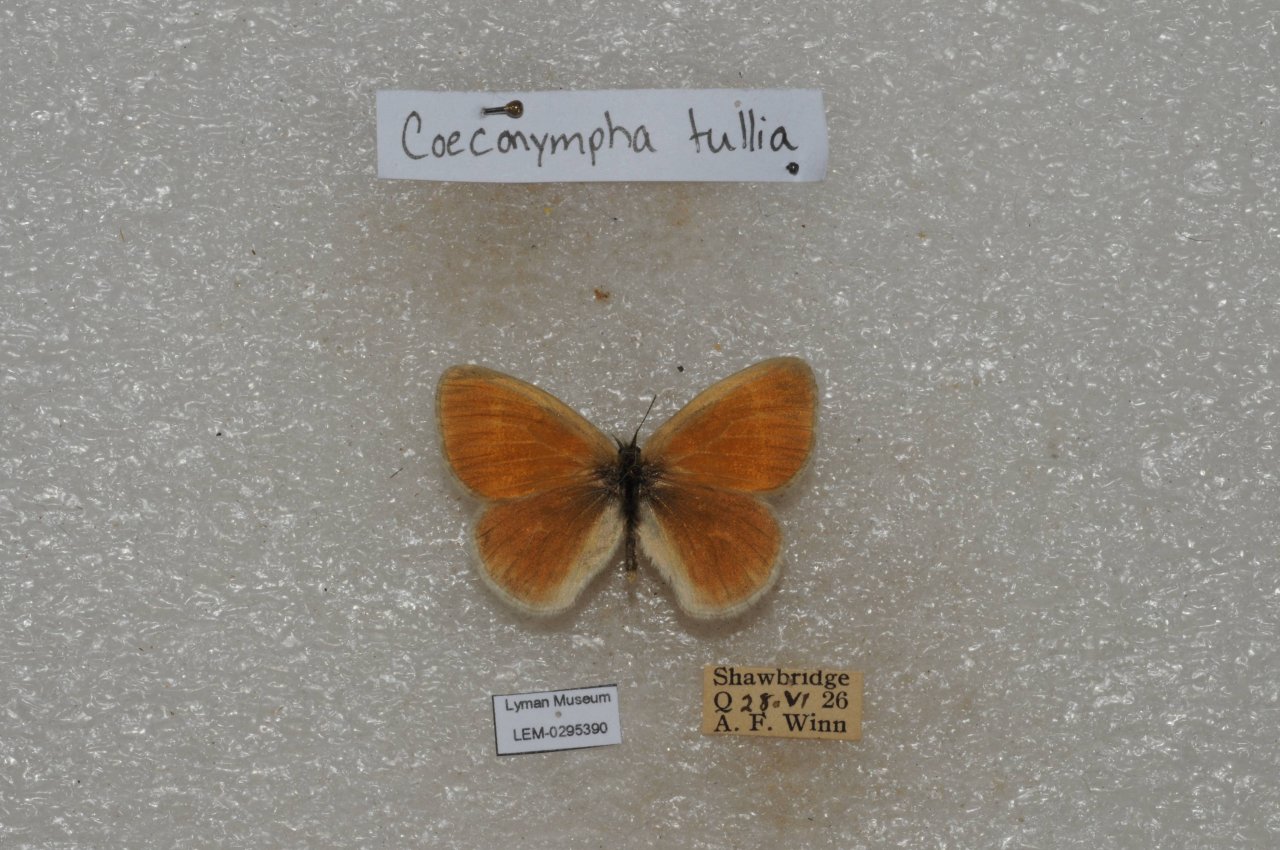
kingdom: Animalia
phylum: Arthropoda
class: Insecta
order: Lepidoptera
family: Nymphalidae
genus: Coenonympha
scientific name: Coenonympha tullia
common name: Large Heath
